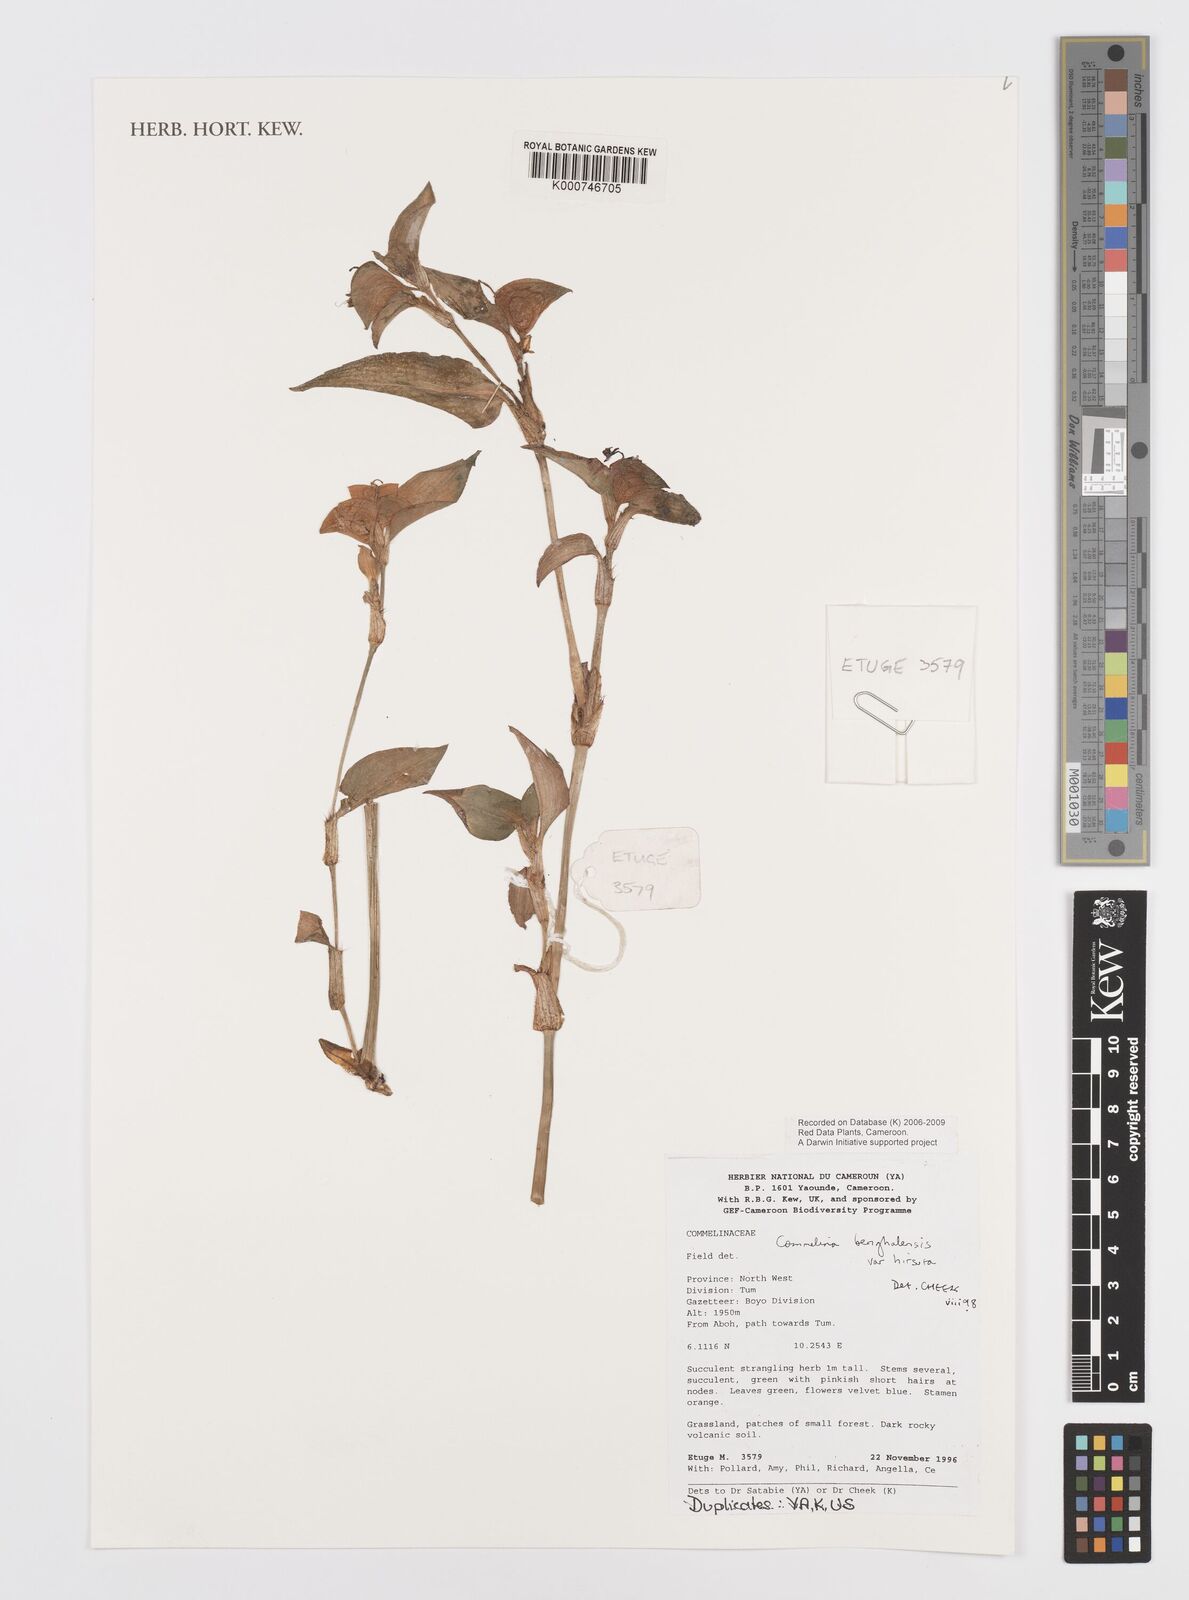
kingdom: Plantae
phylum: Tracheophyta
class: Liliopsida
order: Commelinales
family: Commelinaceae
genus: Commelina
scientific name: Commelina benghalensis
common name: Jio
